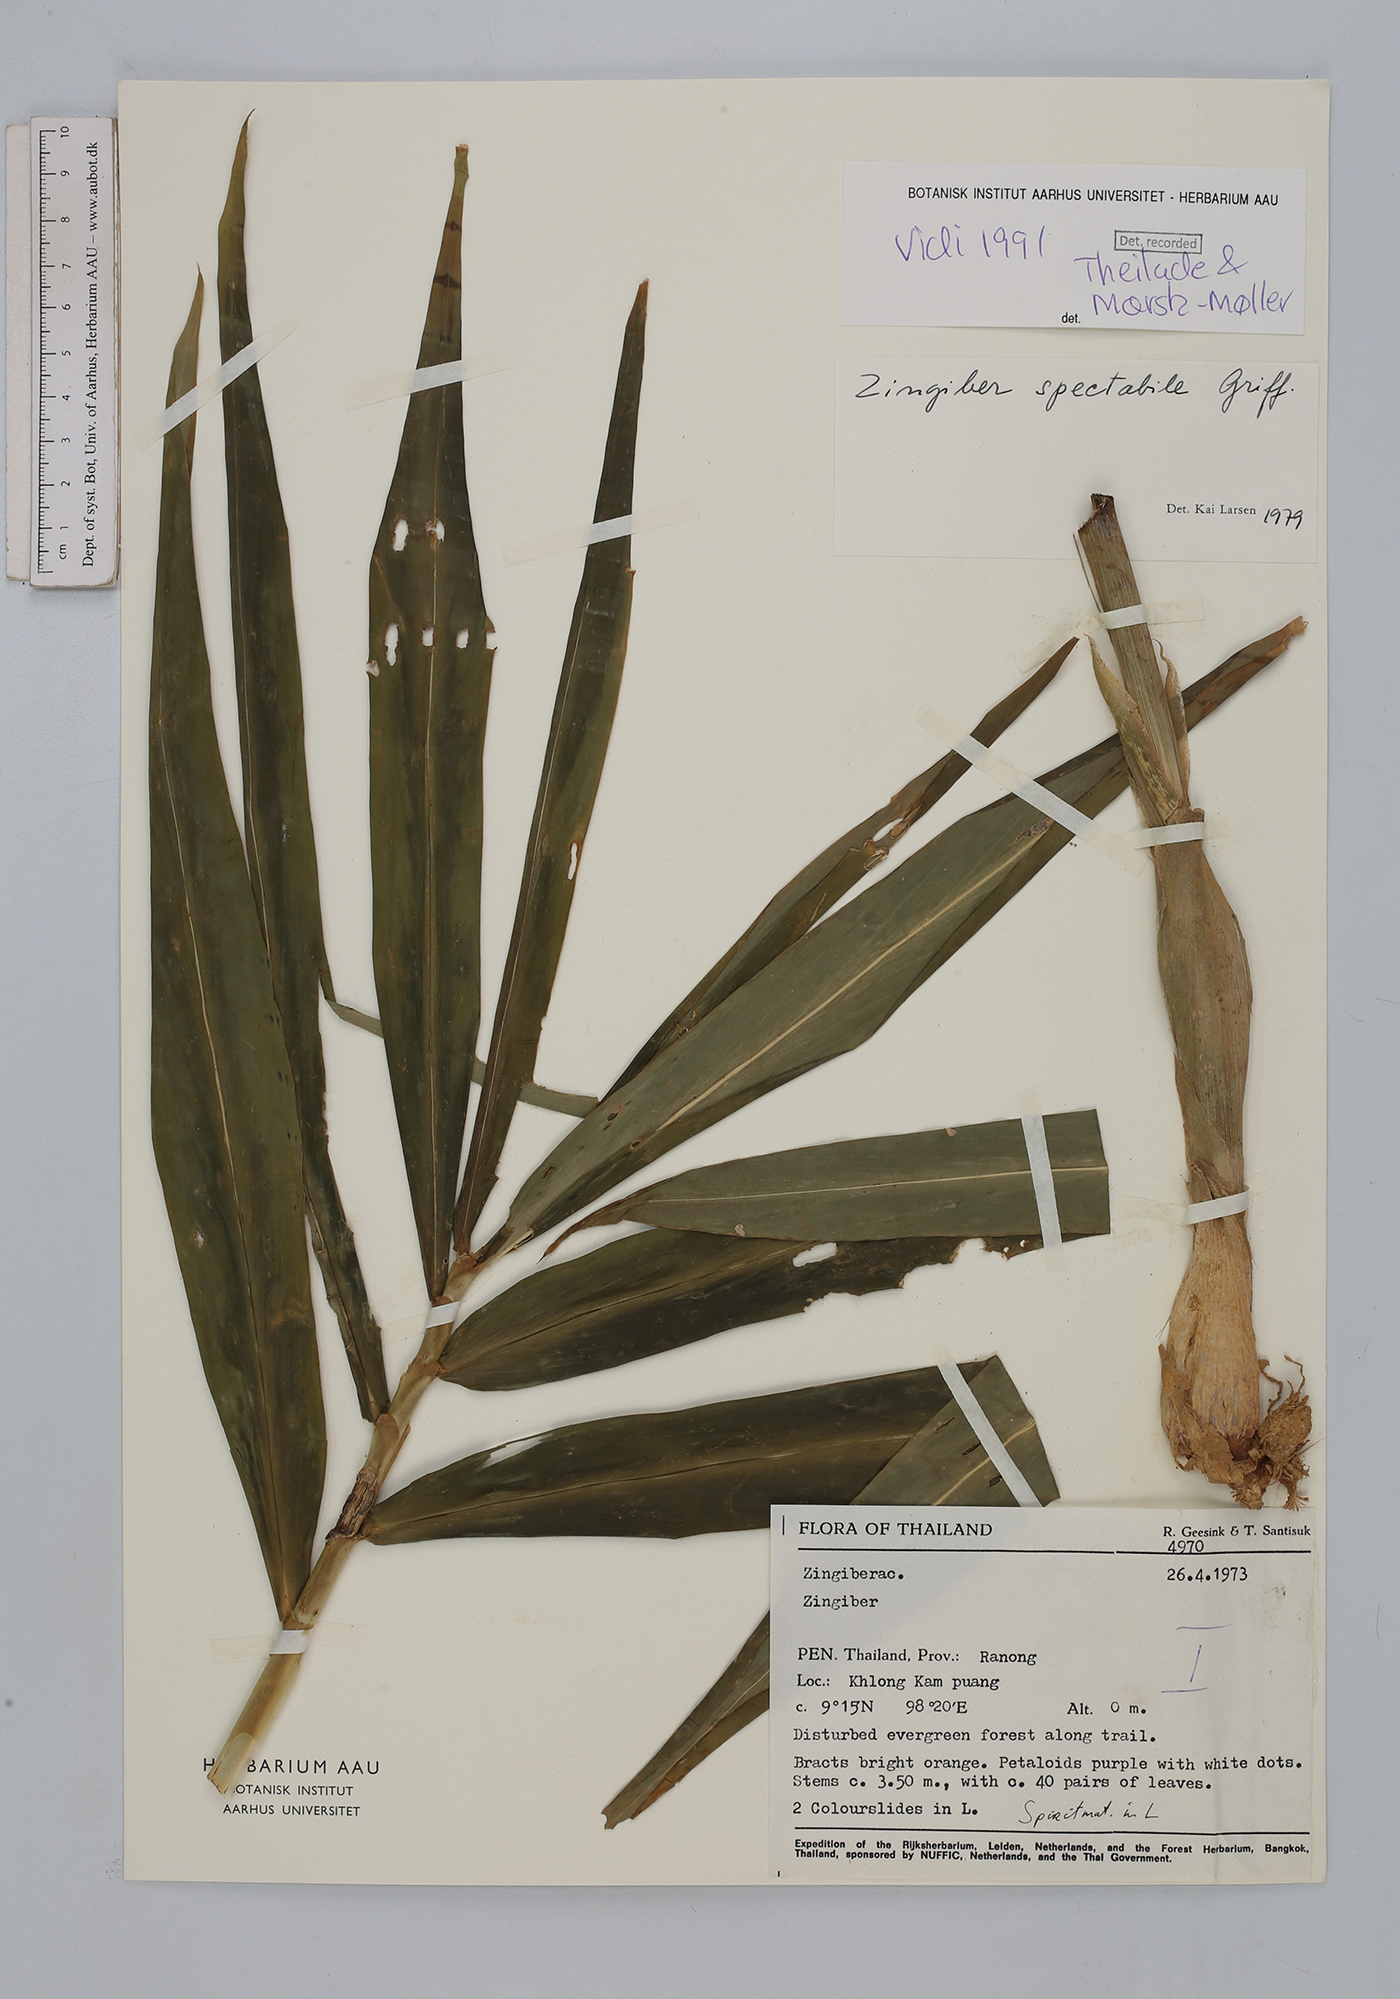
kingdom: Plantae
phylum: Tracheophyta
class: Liliopsida
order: Zingiberales
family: Zingiberaceae
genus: Zingiber
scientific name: Zingiber spectabile
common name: Beehive ginger
